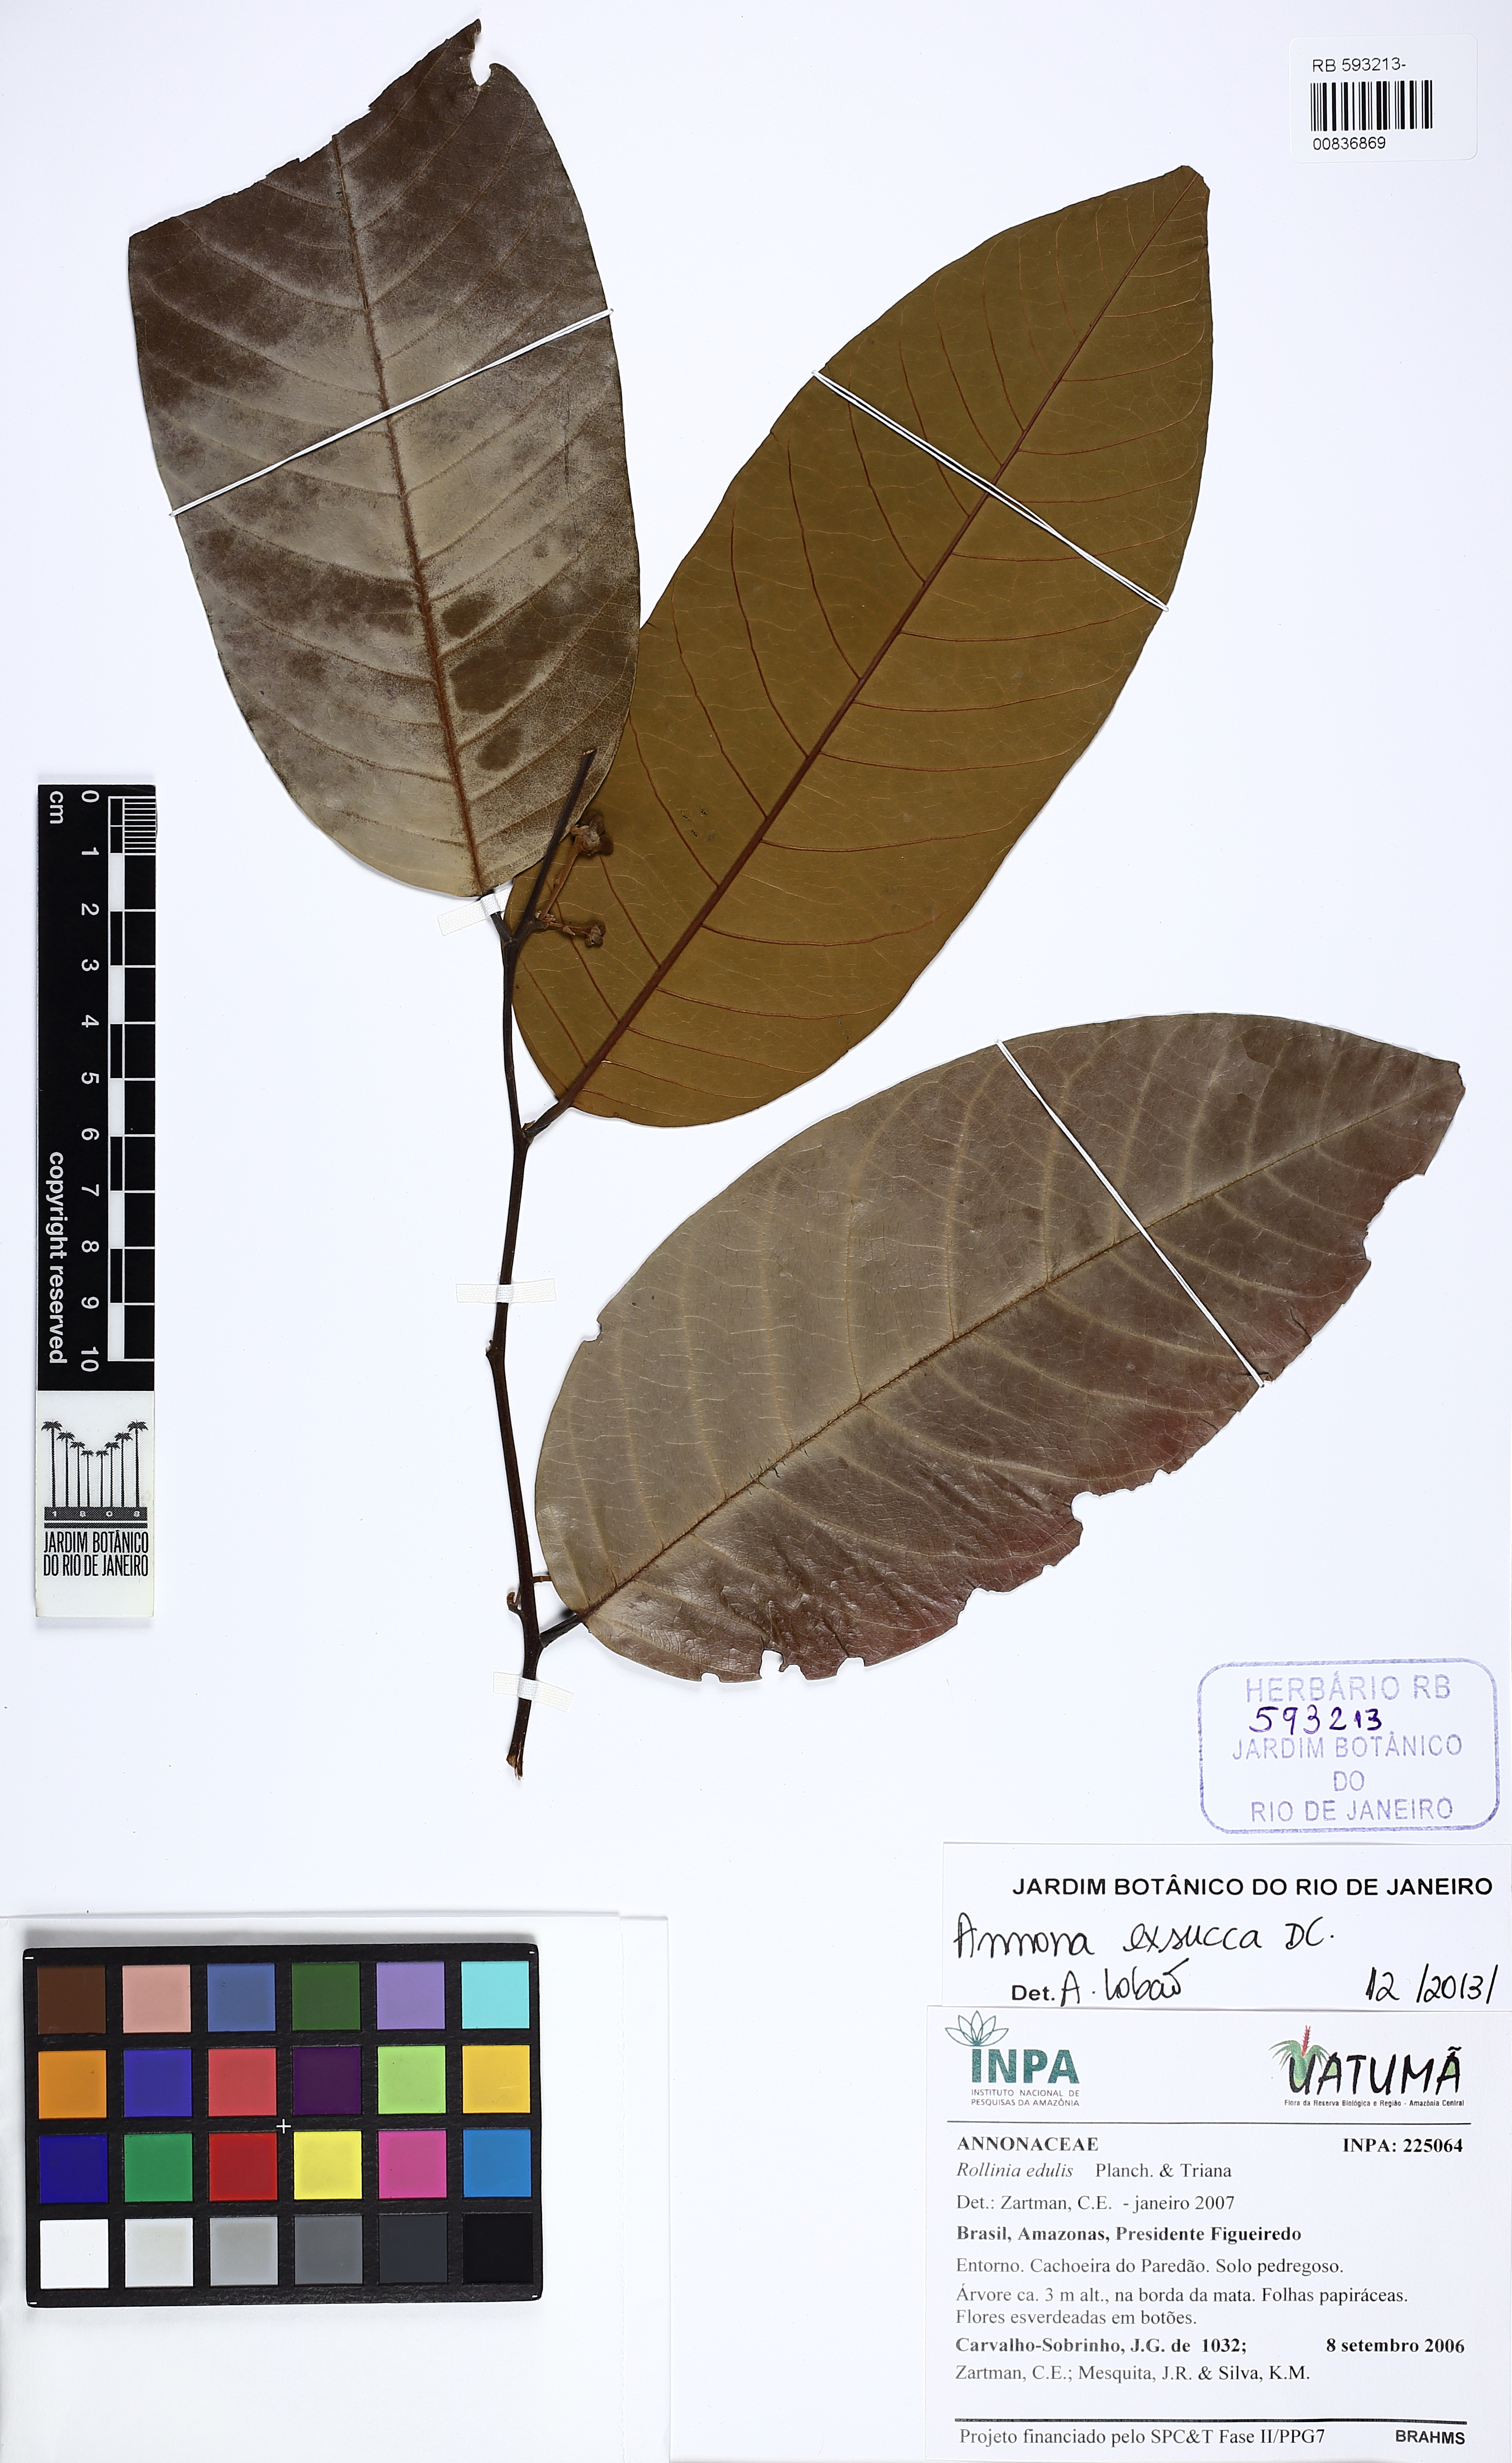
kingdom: Plantae
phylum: Tracheophyta
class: Magnoliopsida
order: Magnoliales
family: Annonaceae
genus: Annona
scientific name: Annona exsucca
